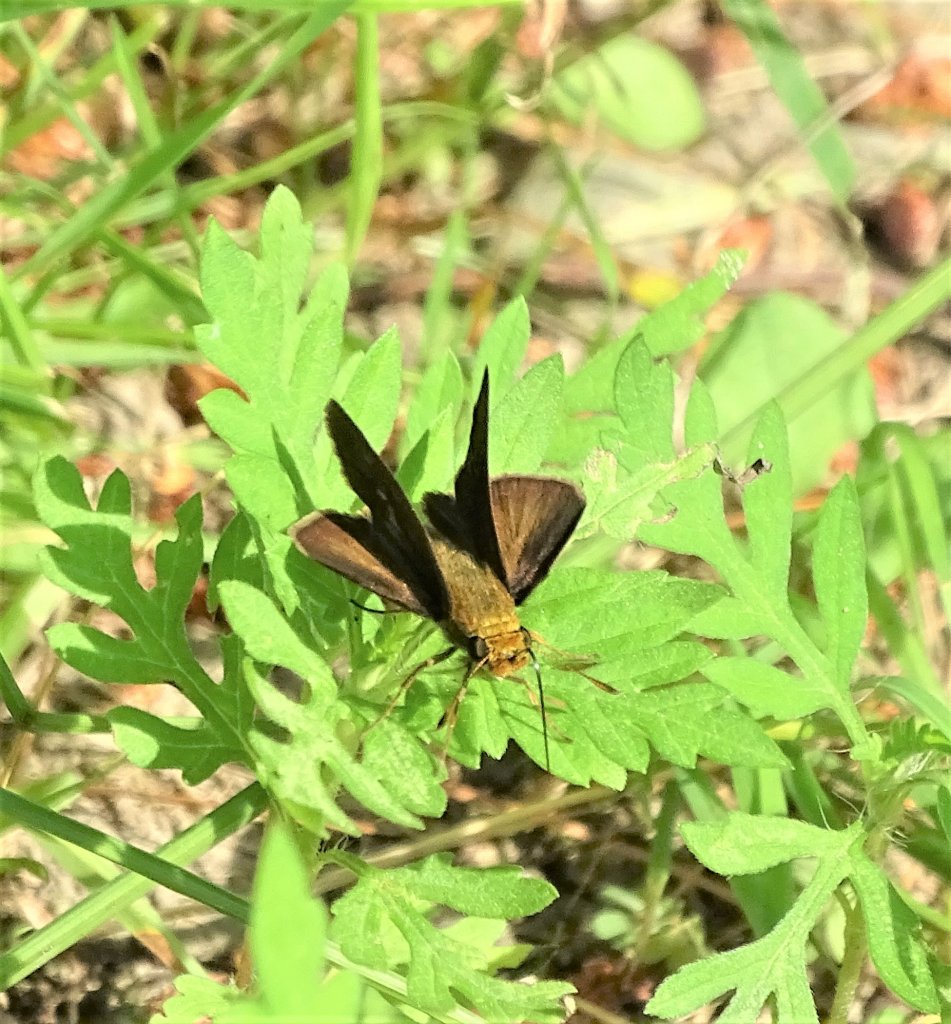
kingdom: Animalia
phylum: Arthropoda
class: Insecta
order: Lepidoptera
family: Hesperiidae
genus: Euphyes
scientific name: Euphyes vestris
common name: Dun Skipper
